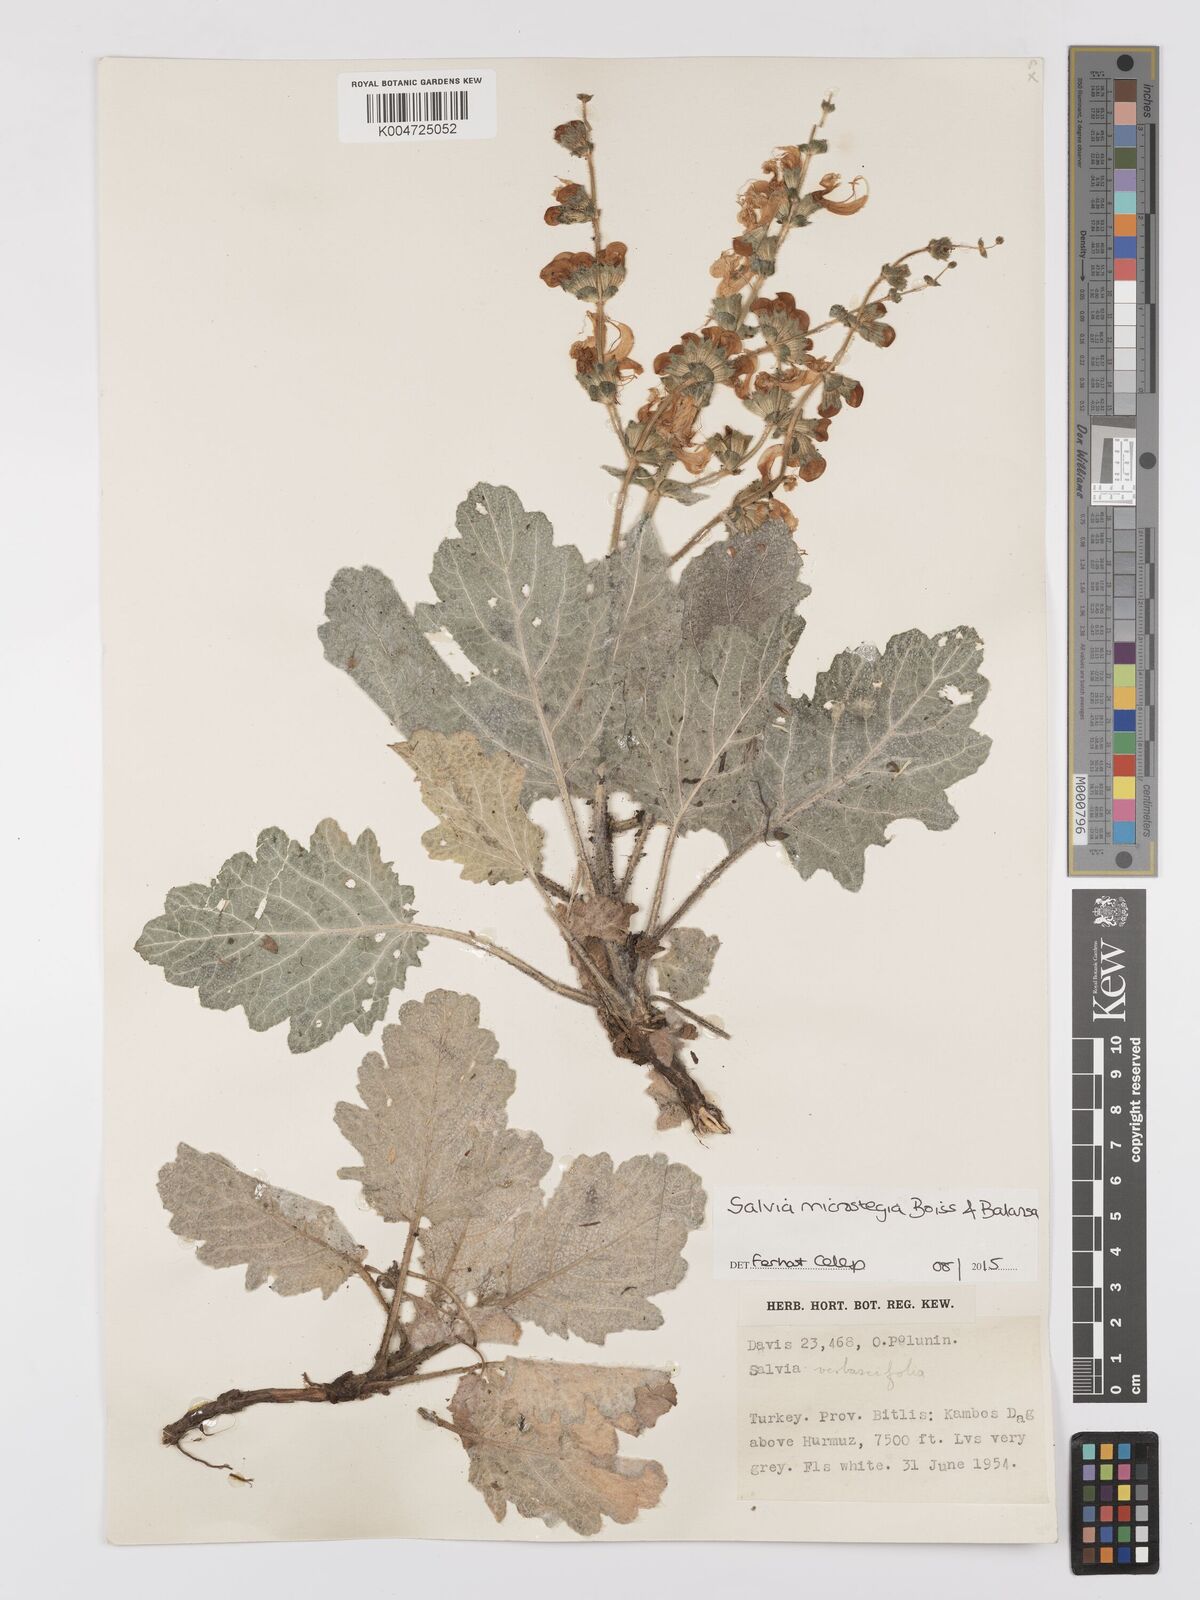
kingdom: Plantae
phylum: Tracheophyta
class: Magnoliopsida
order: Lamiales
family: Lamiaceae
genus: Salvia
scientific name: Salvia microstegia
